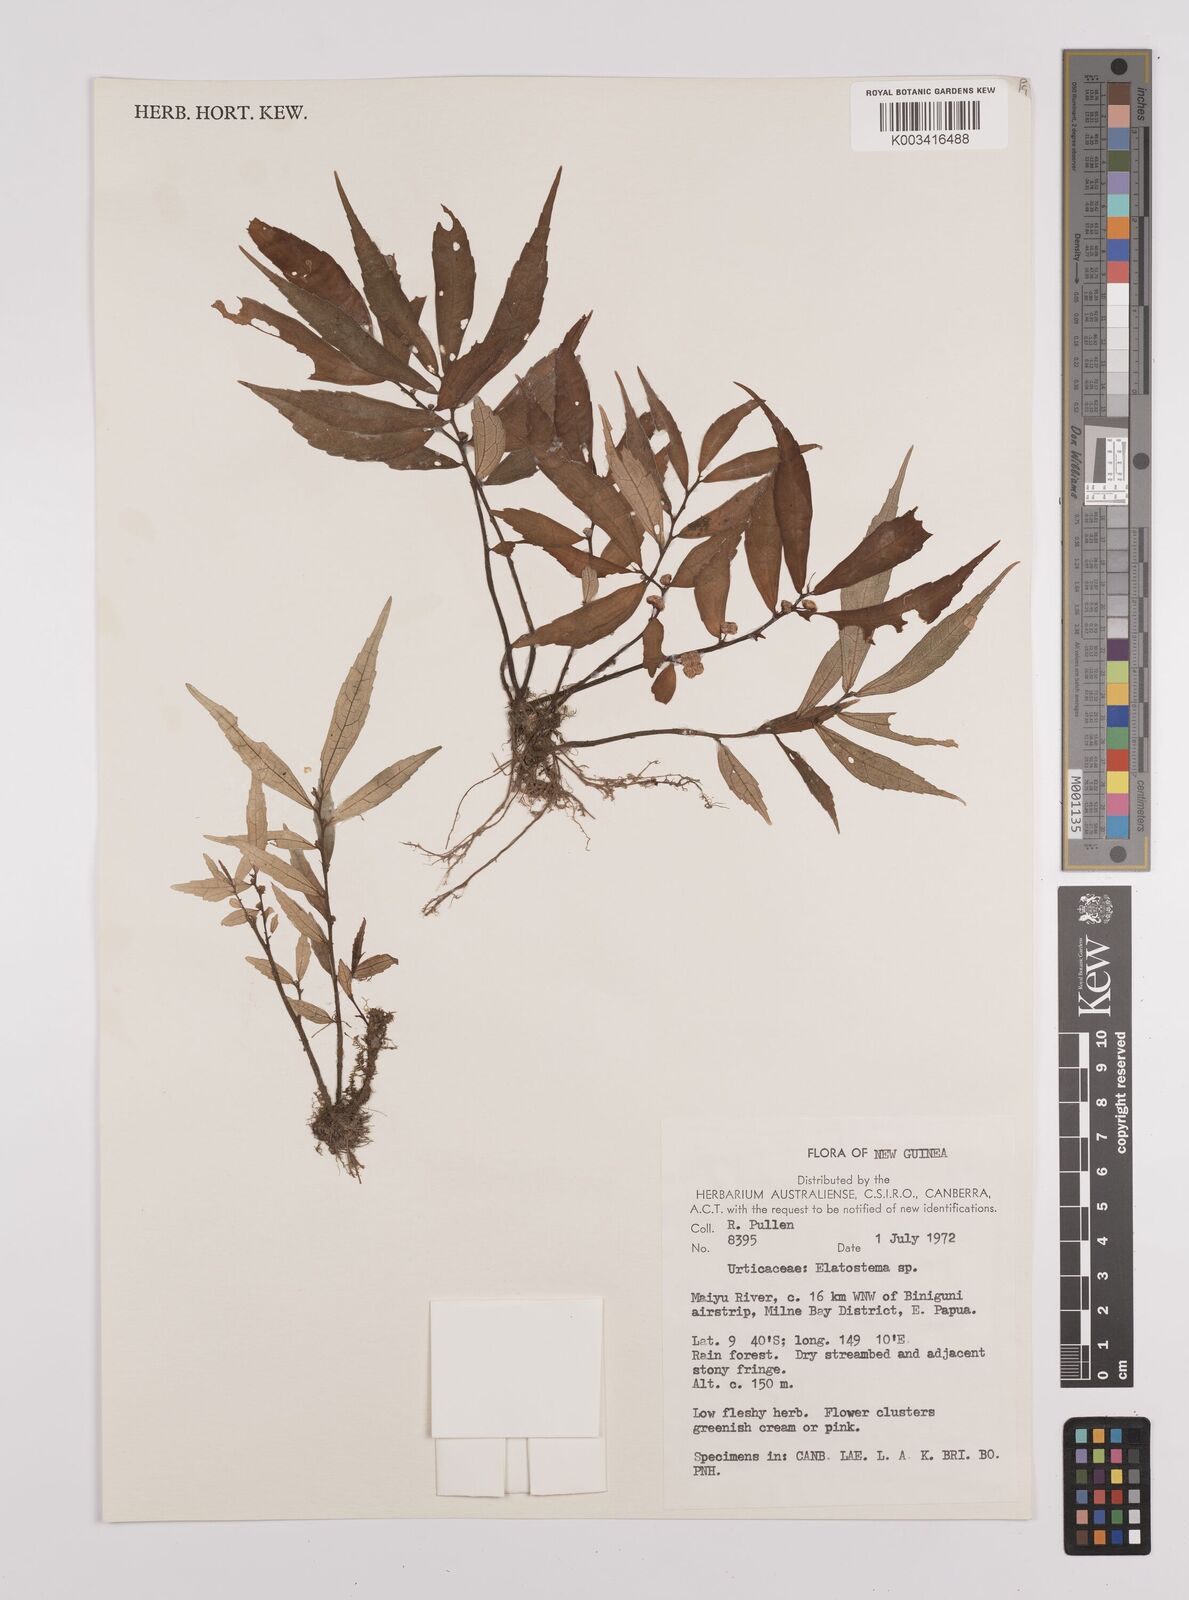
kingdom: Plantae
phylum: Tracheophyta
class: Magnoliopsida
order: Rosales
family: Urticaceae
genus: Elatostema
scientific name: Elatostema
